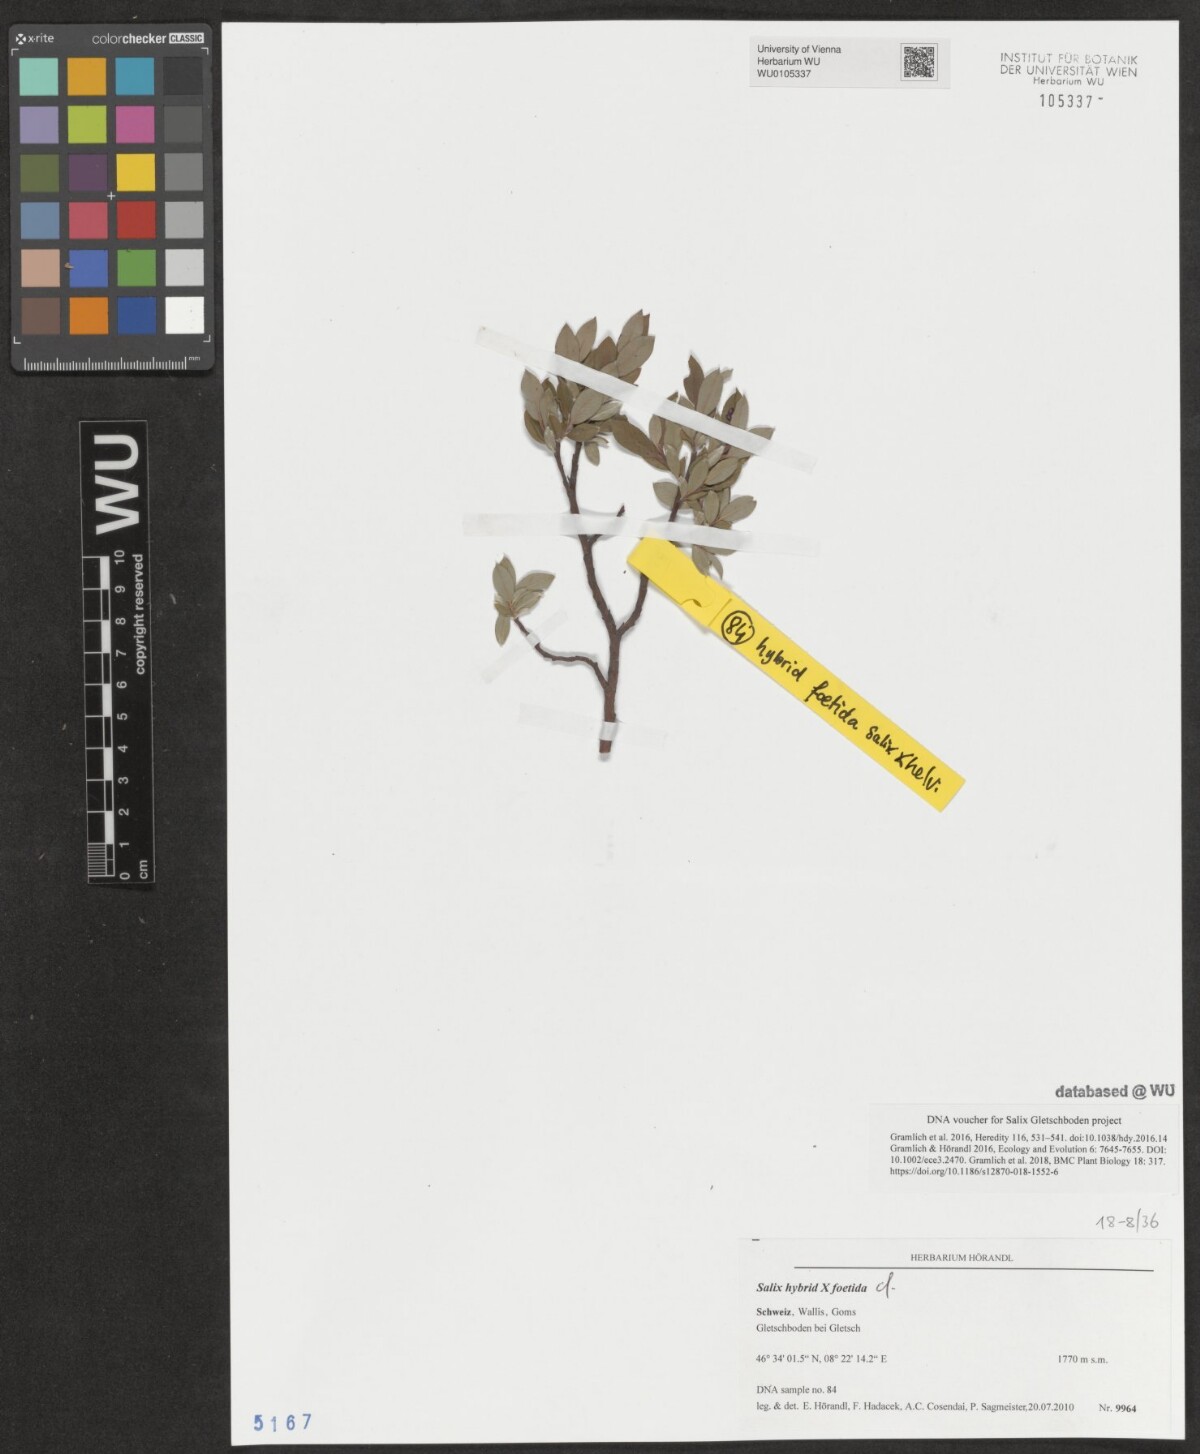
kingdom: Plantae
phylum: Tracheophyta
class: Magnoliopsida
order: Malpighiales
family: Salicaceae
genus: Salix
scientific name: Salix foetida
